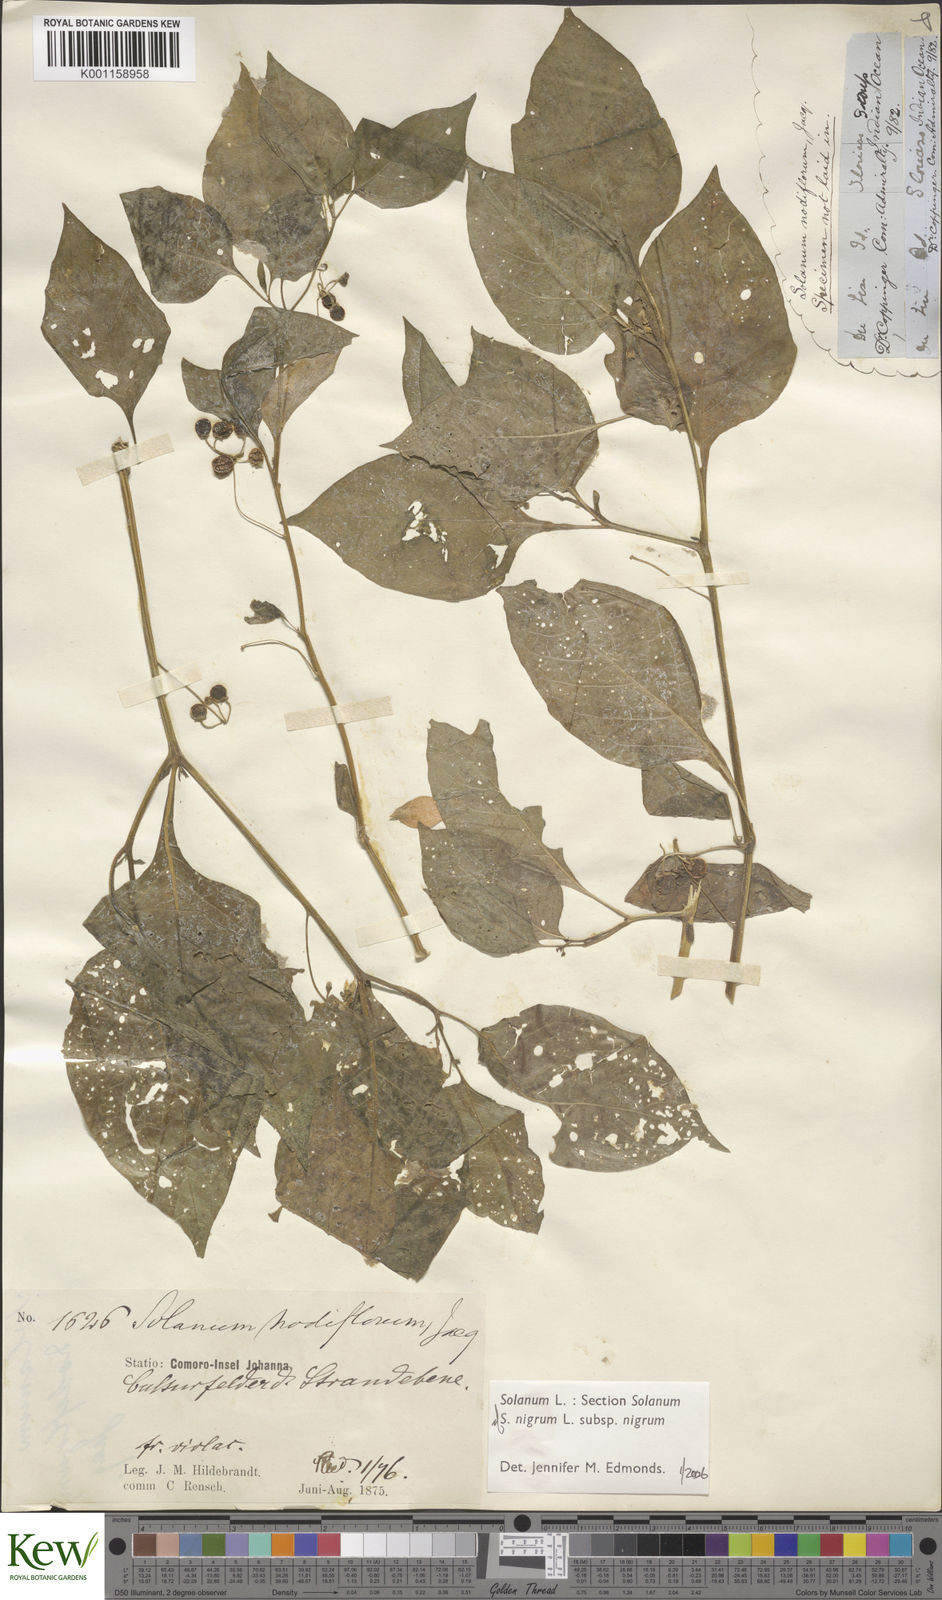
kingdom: Plantae
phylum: Tracheophyta
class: Magnoliopsida
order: Solanales
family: Solanaceae
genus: Solanum
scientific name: Solanum nigrum
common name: Black nightshade
